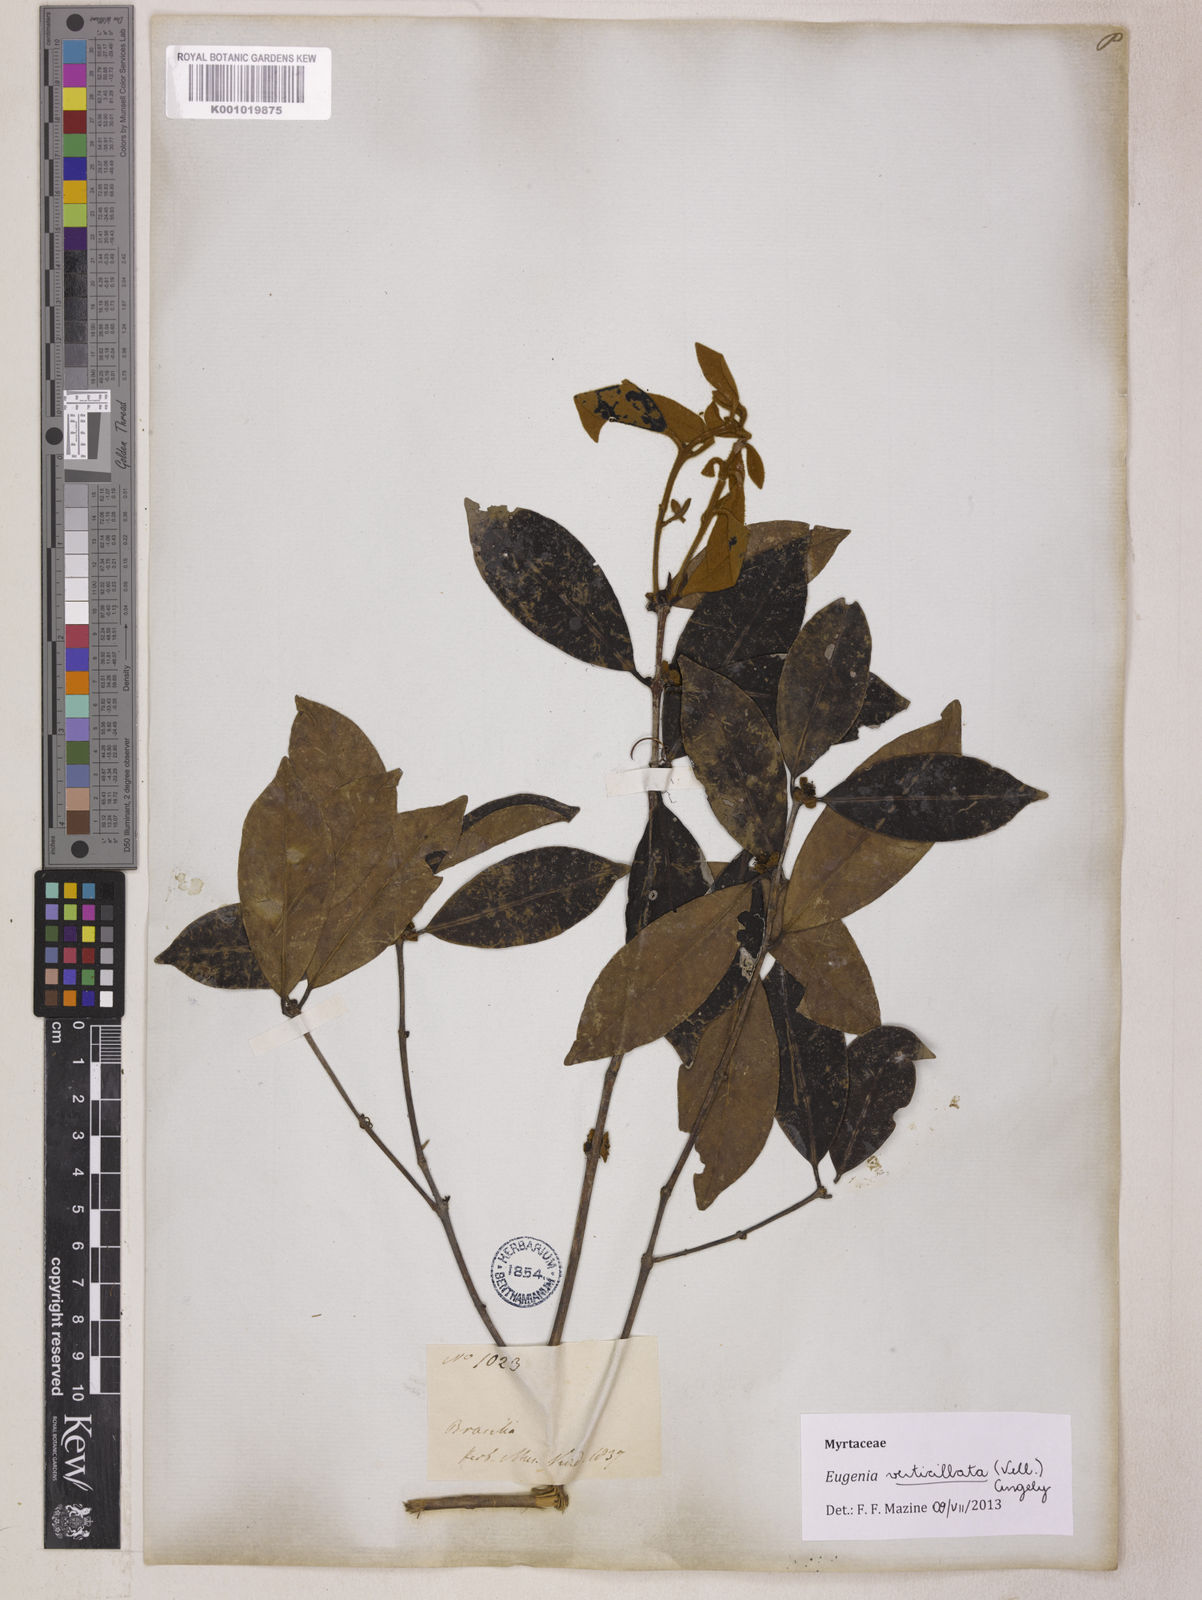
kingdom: Plantae
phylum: Tracheophyta
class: Magnoliopsida
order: Myrtales
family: Myrtaceae
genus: Eugenia
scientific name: Eugenia verticillata
